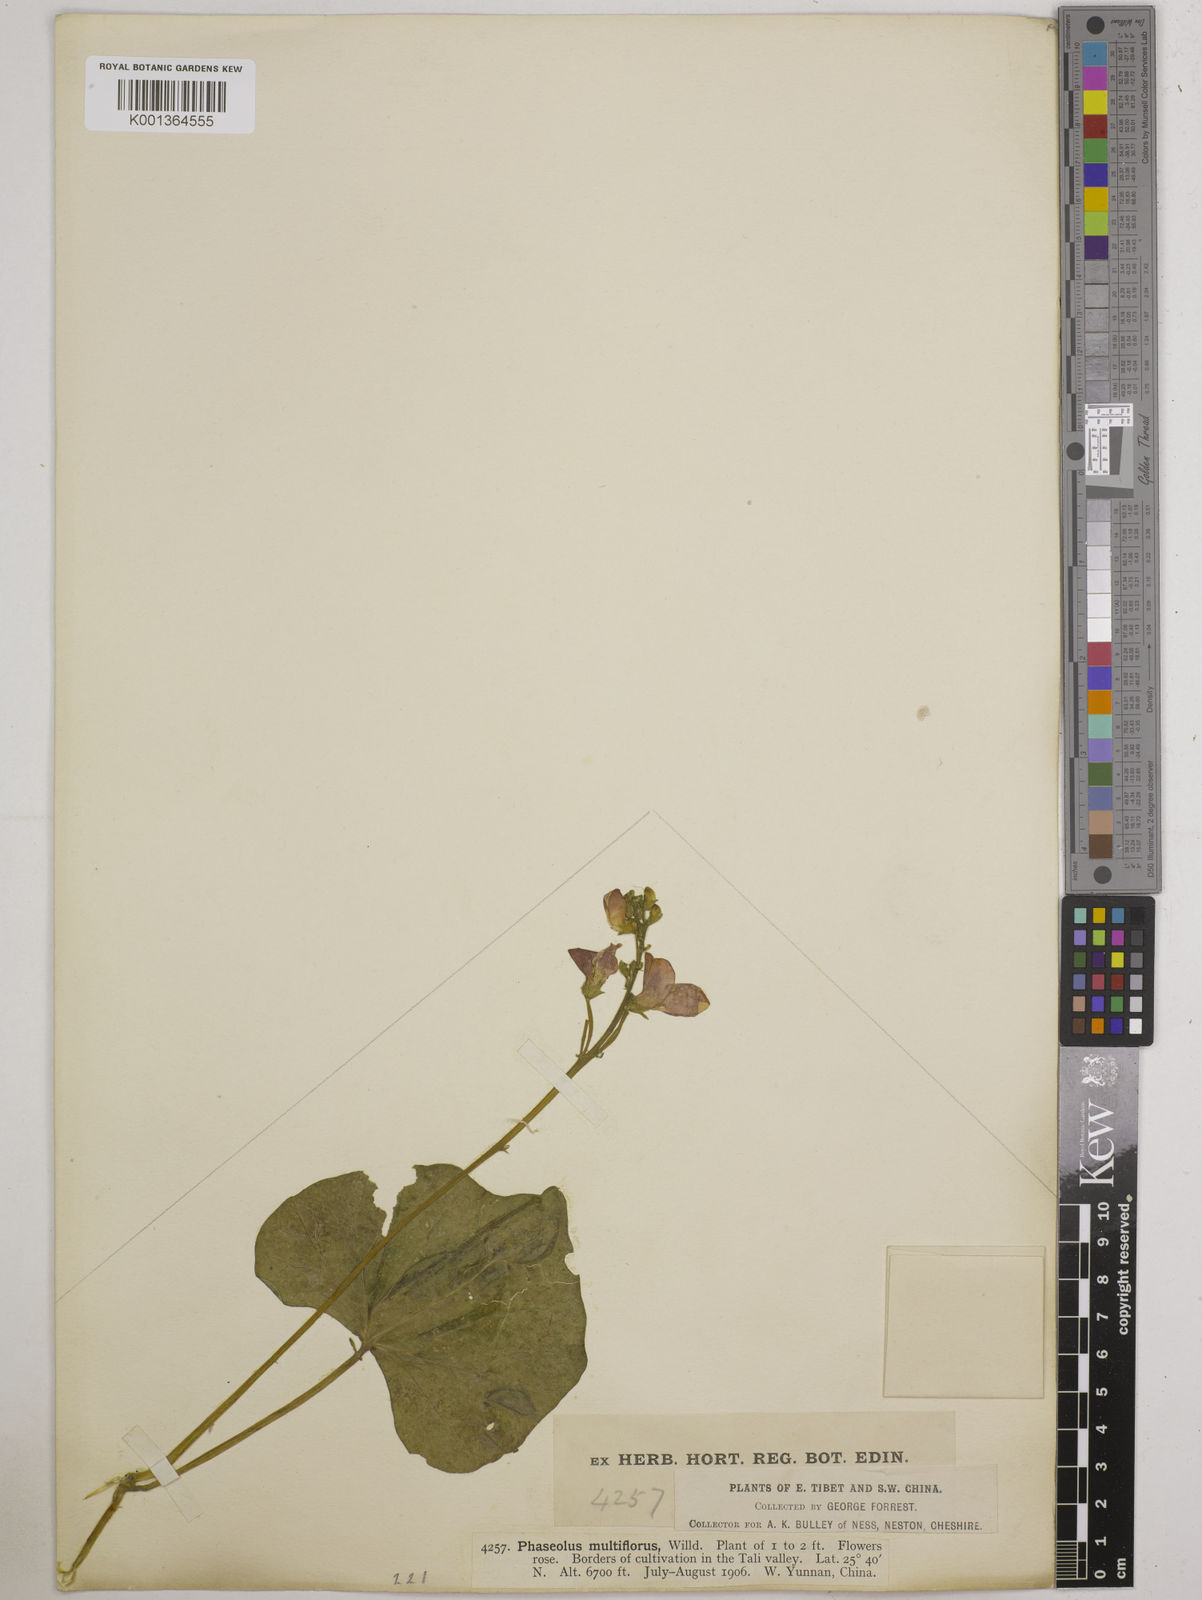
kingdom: Plantae
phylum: Tracheophyta
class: Magnoliopsida
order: Fabales
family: Fabaceae
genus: Phaseolus
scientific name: Phaseolus coccineus
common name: Runner bean
